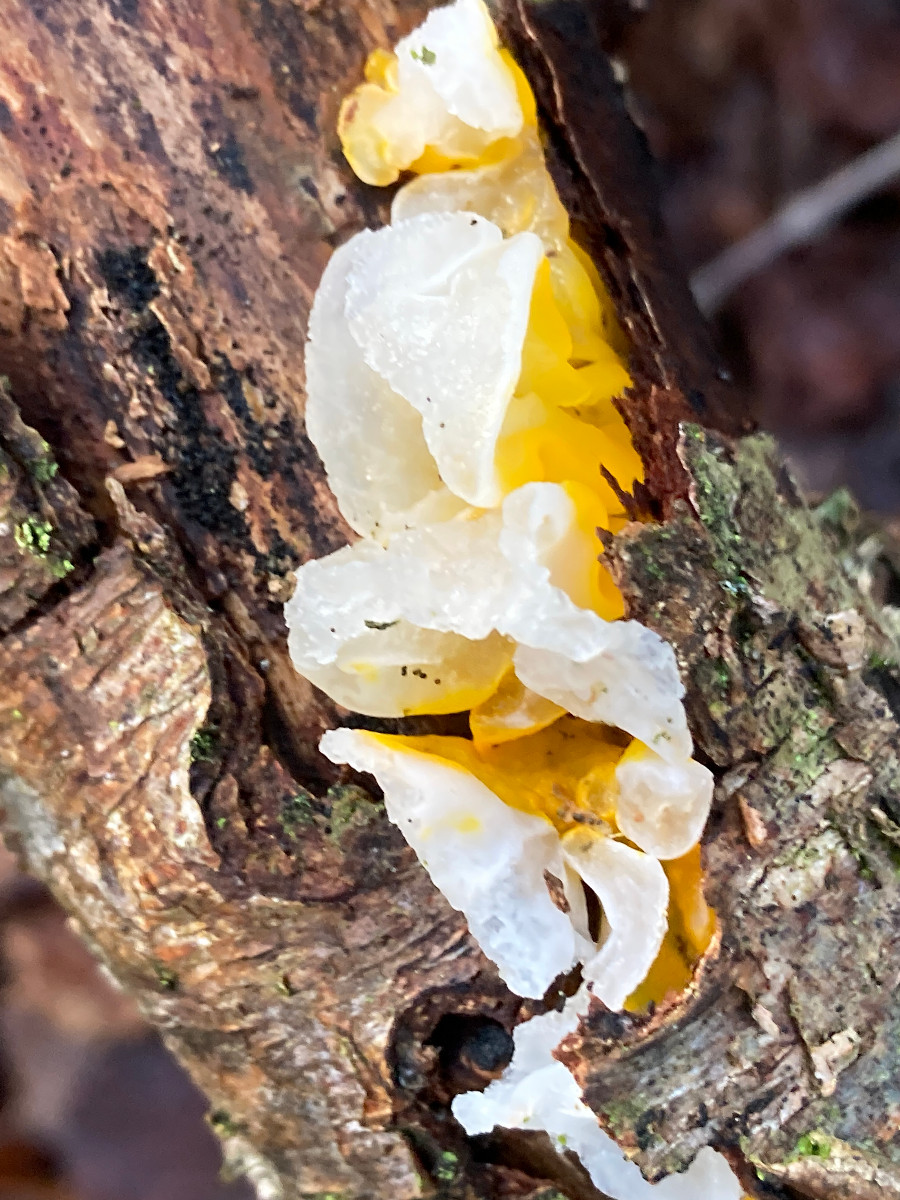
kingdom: Fungi
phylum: Basidiomycota
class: Tremellomycetes
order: Tremellales
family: Tremellaceae
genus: Tremella
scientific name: Tremella mesenterica
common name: gul bævresvamp
